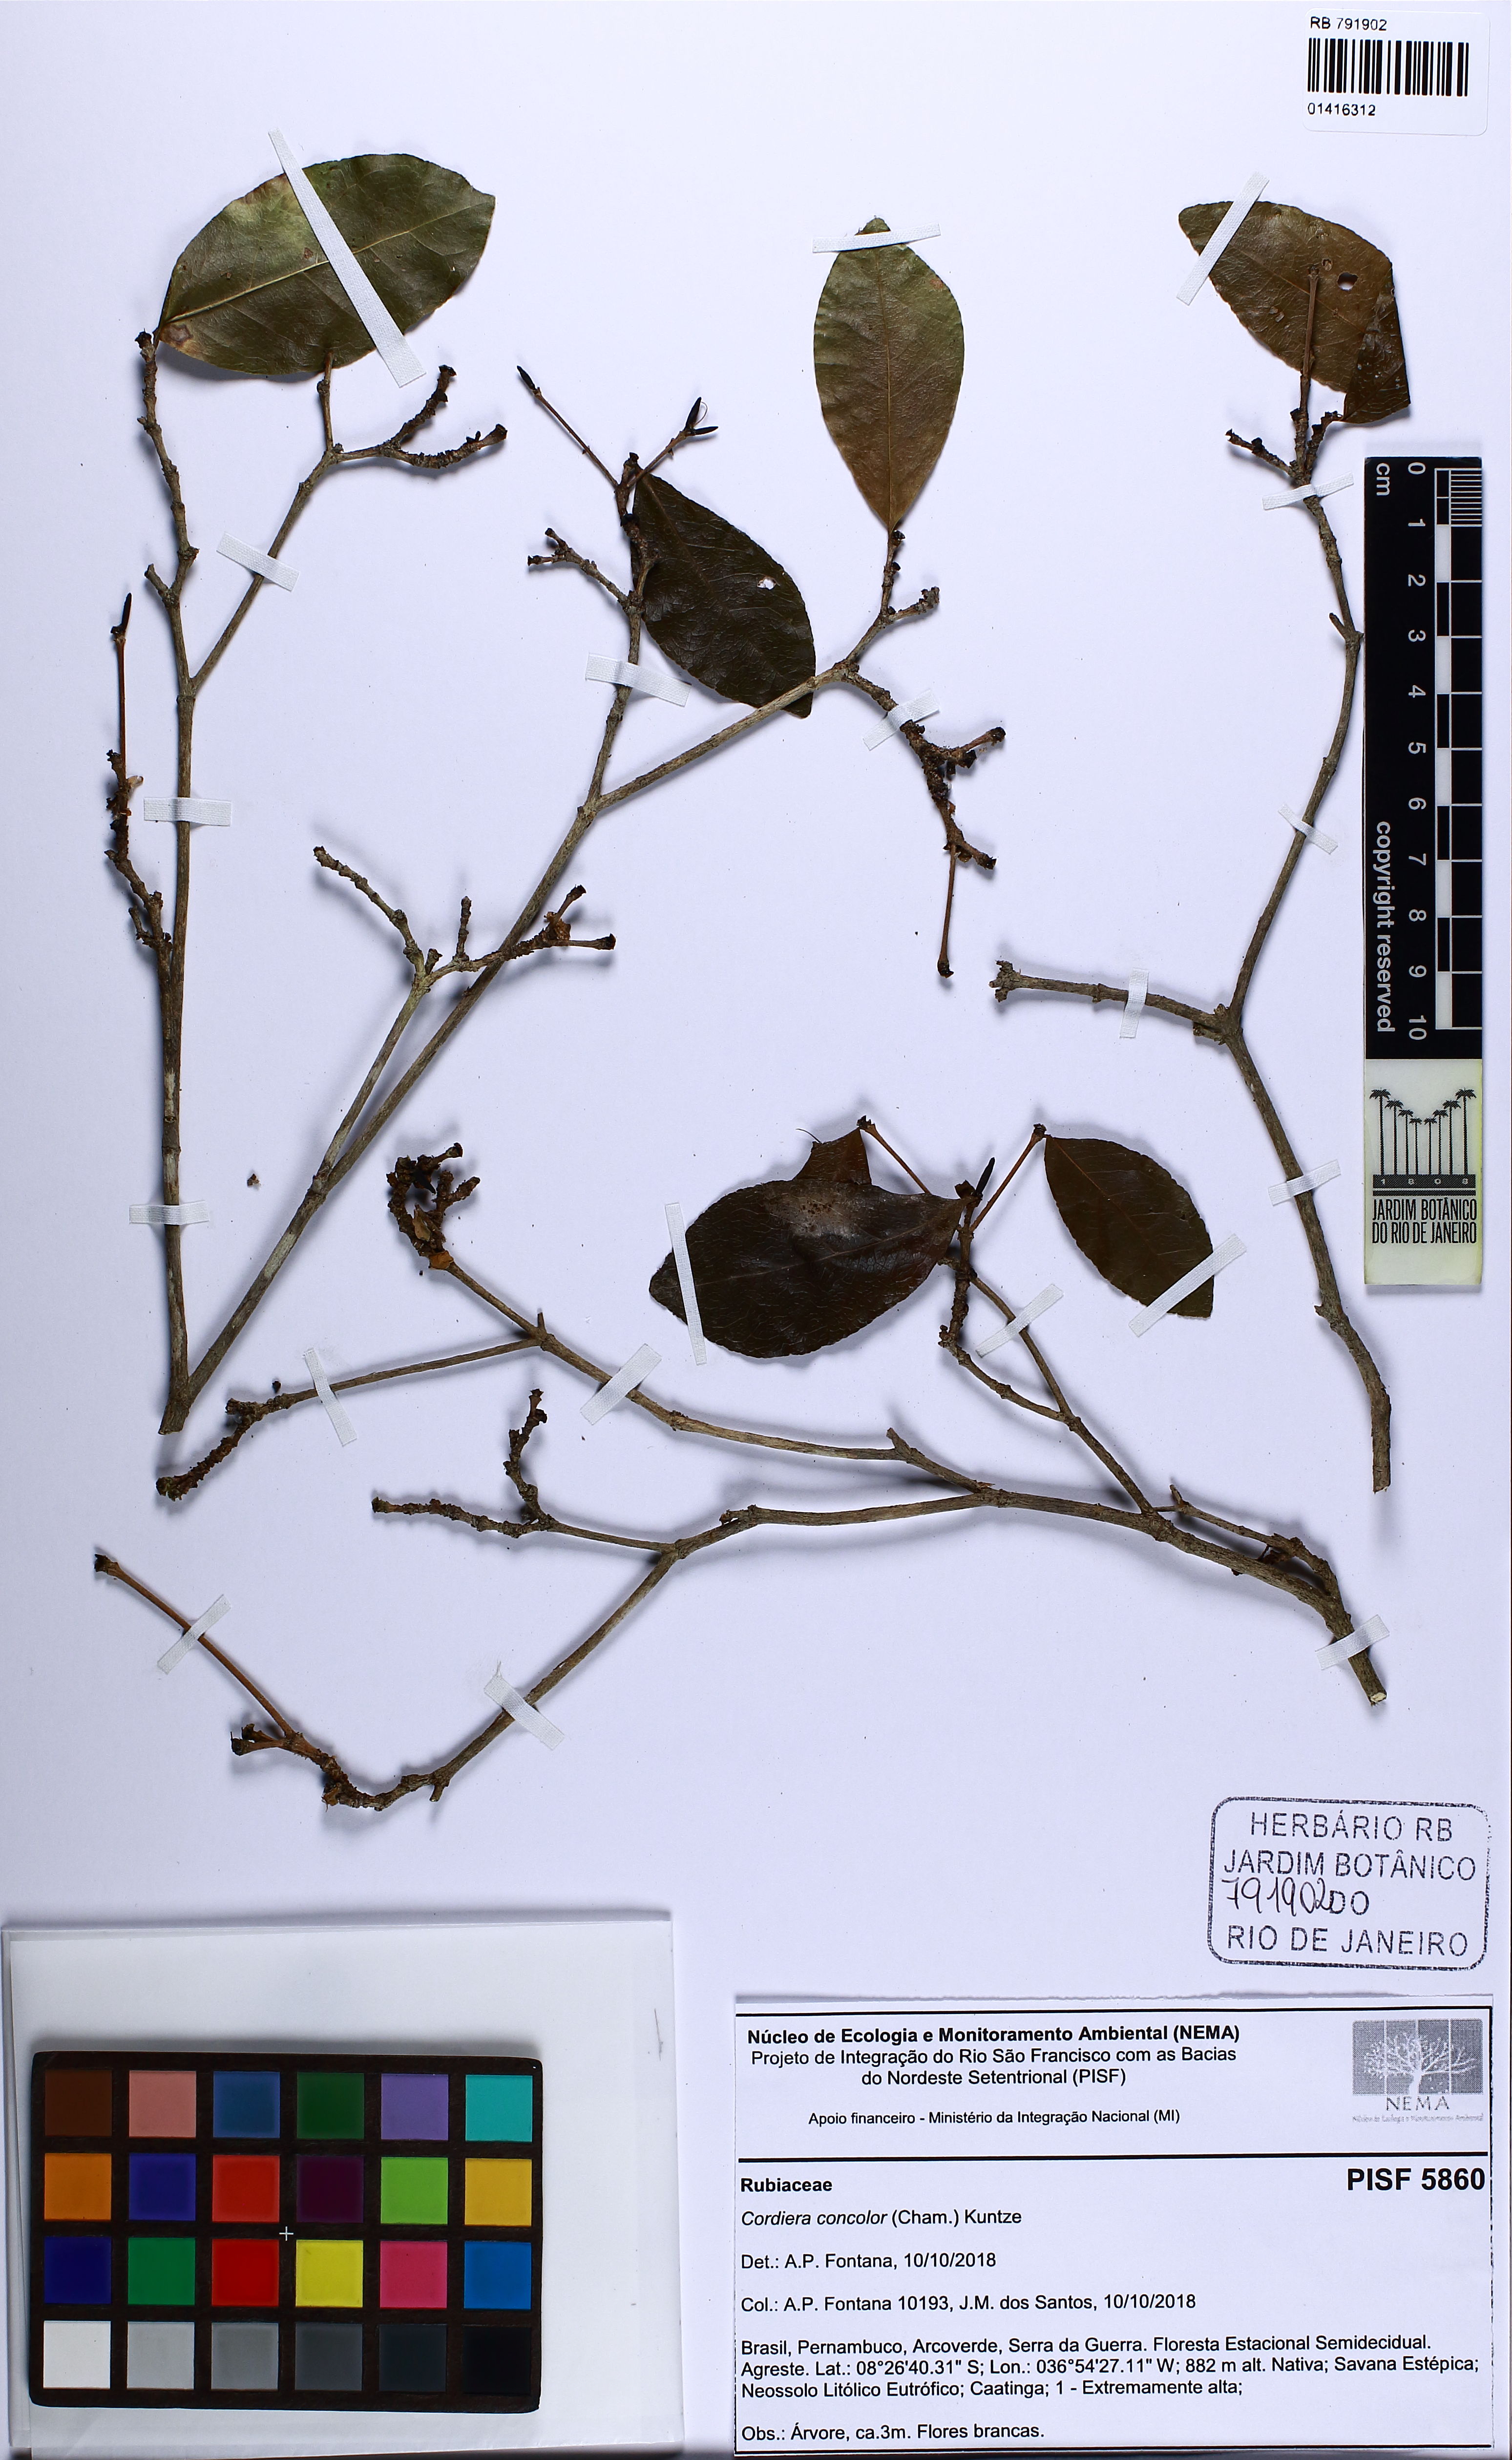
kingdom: Plantae
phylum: Tracheophyta
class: Magnoliopsida
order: Gentianales
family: Rubiaceae
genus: Cordiera
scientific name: Cordiera concolor
